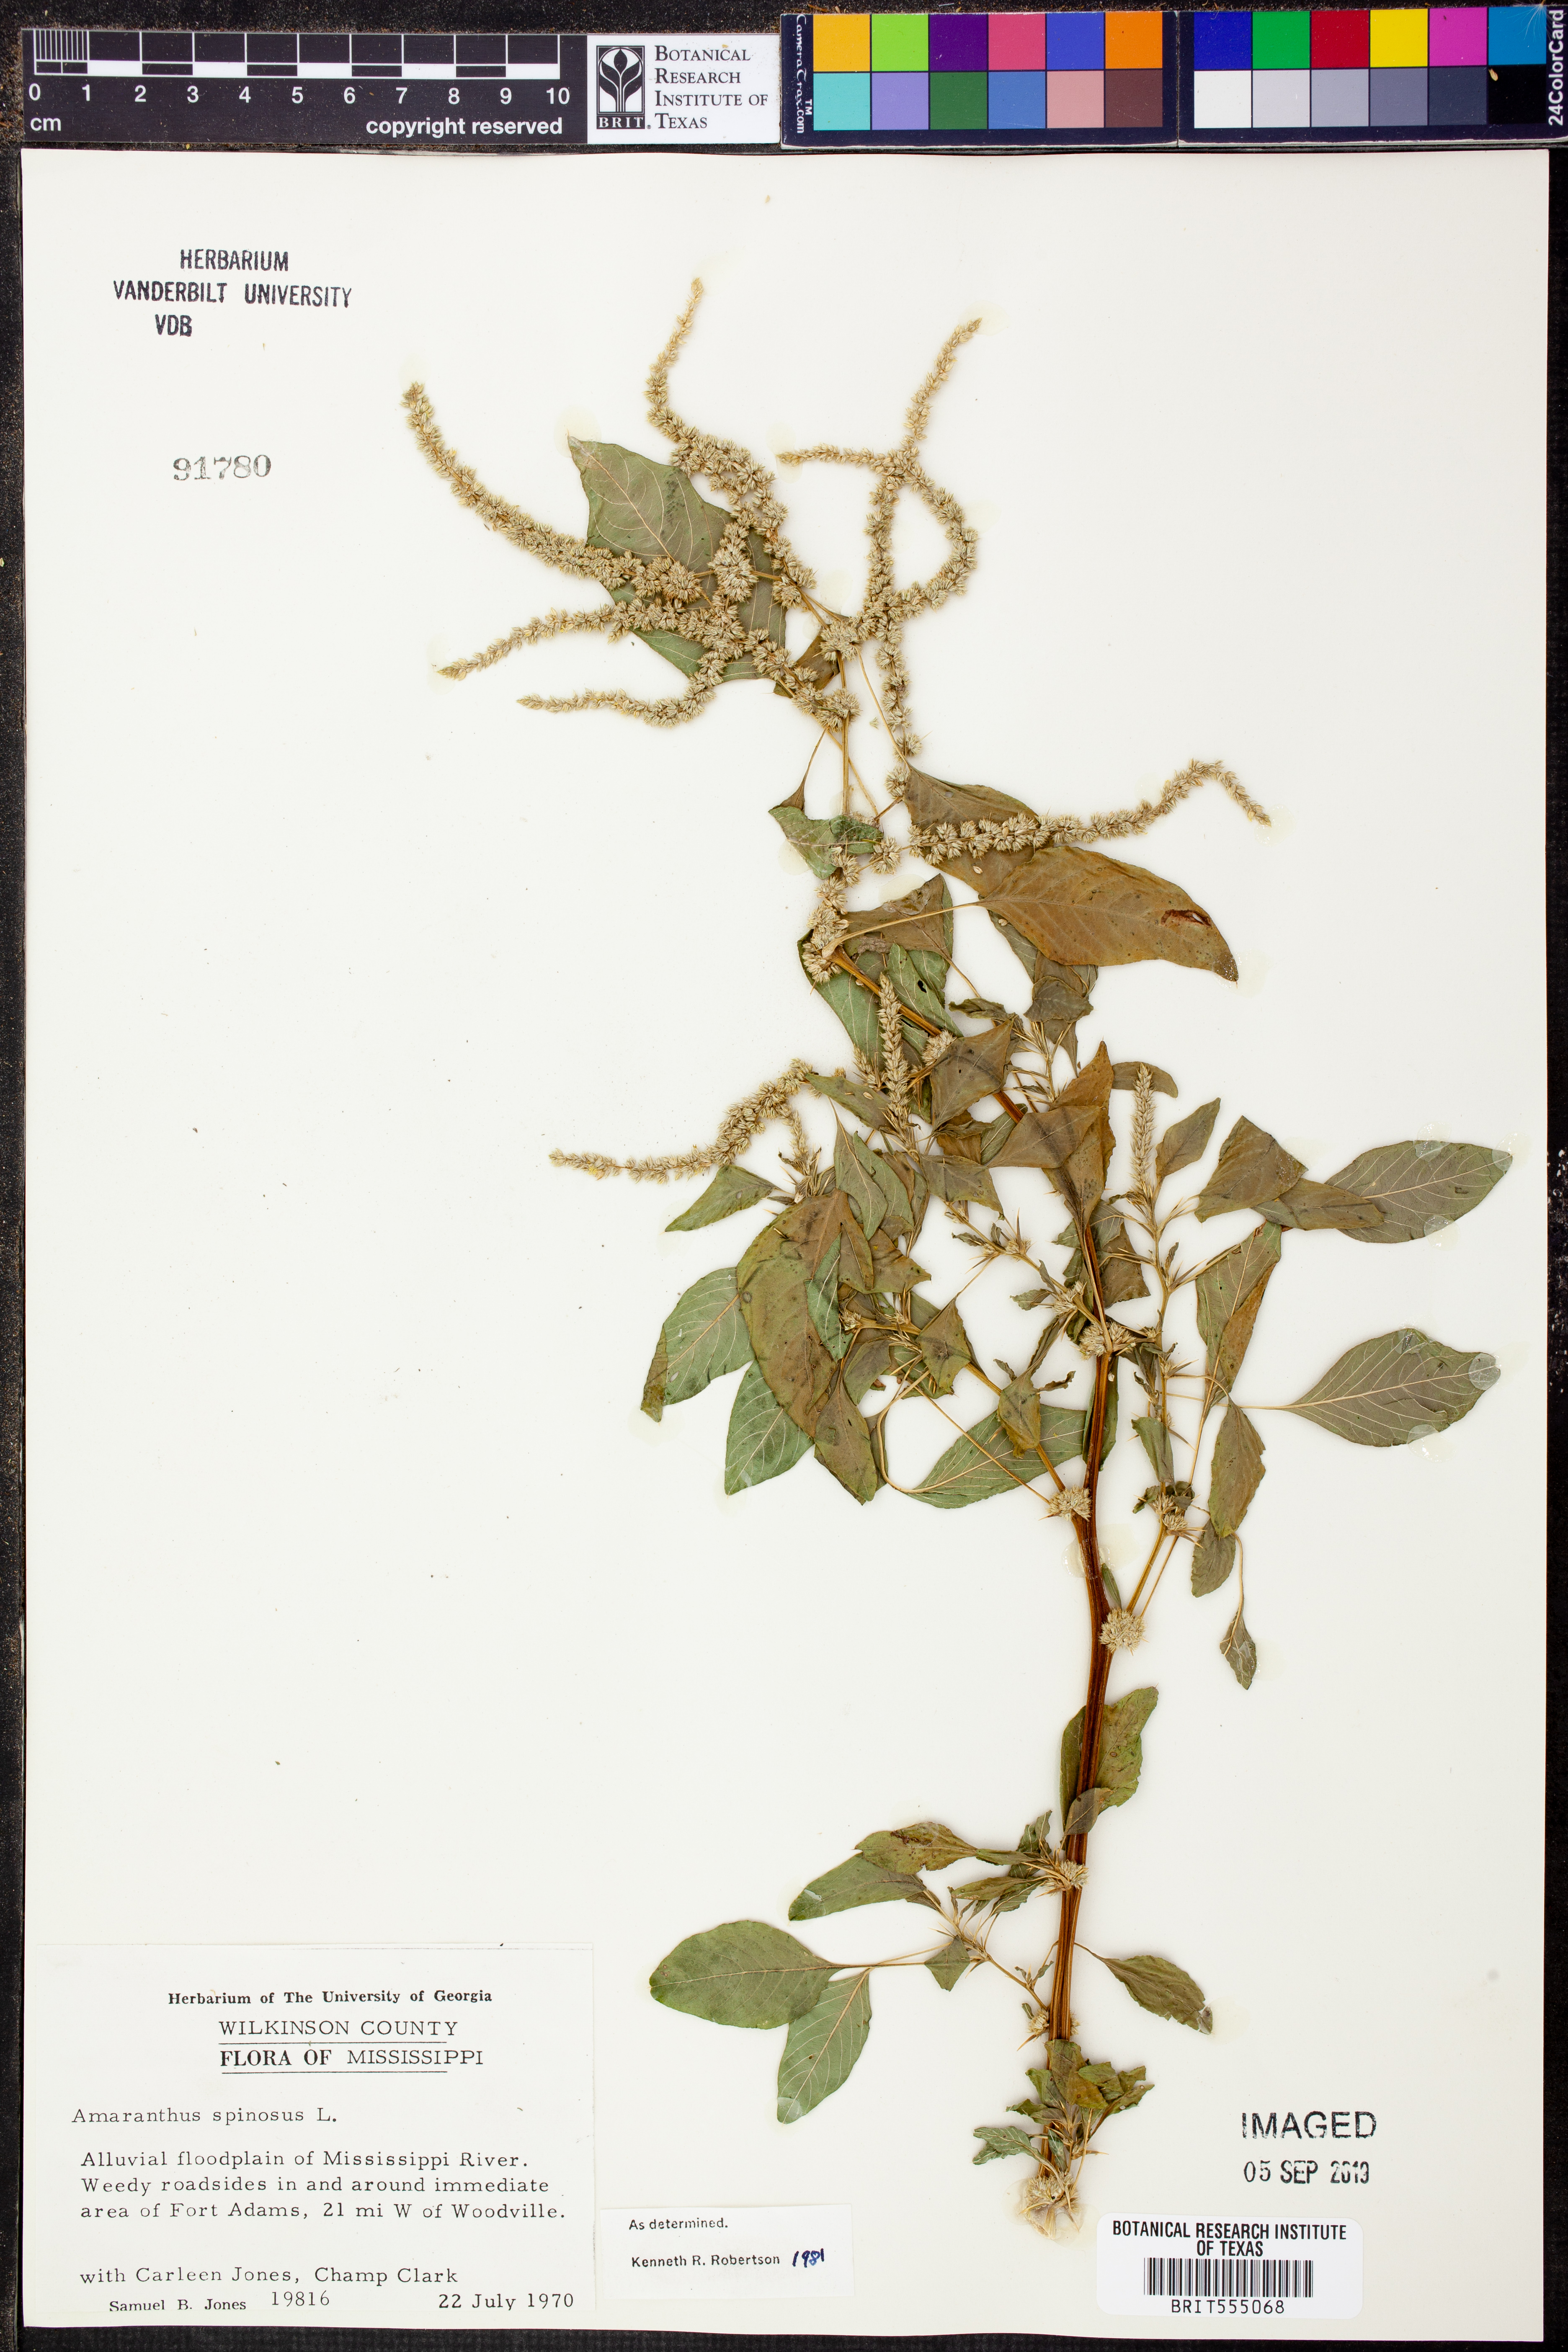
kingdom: Plantae
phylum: Tracheophyta
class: Magnoliopsida
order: Caryophyllales
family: Amaranthaceae
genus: Amaranthus
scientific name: Amaranthus spinosus
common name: Spiny amaranth
